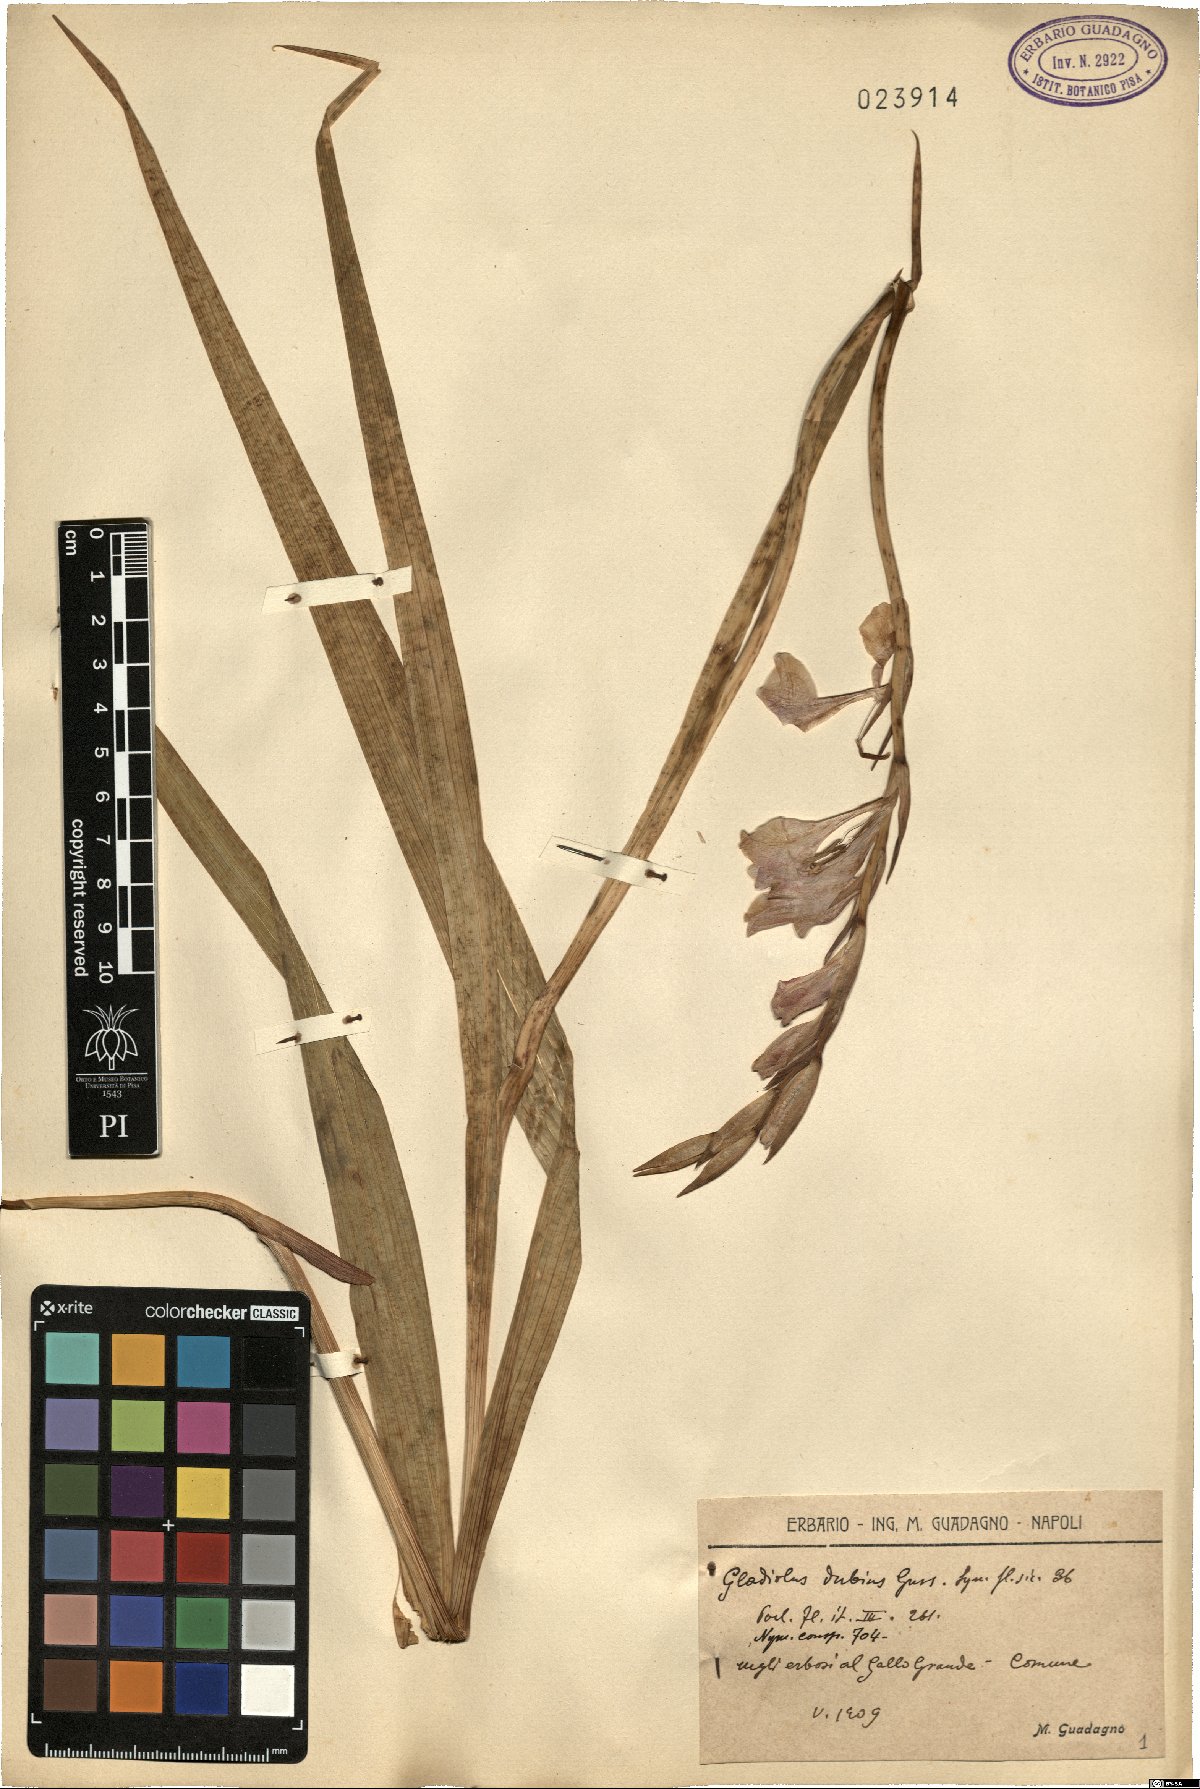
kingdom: Plantae
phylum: Tracheophyta
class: Liliopsida
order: Asparagales
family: Iridaceae
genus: Gladiolus
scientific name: Gladiolus dubius
